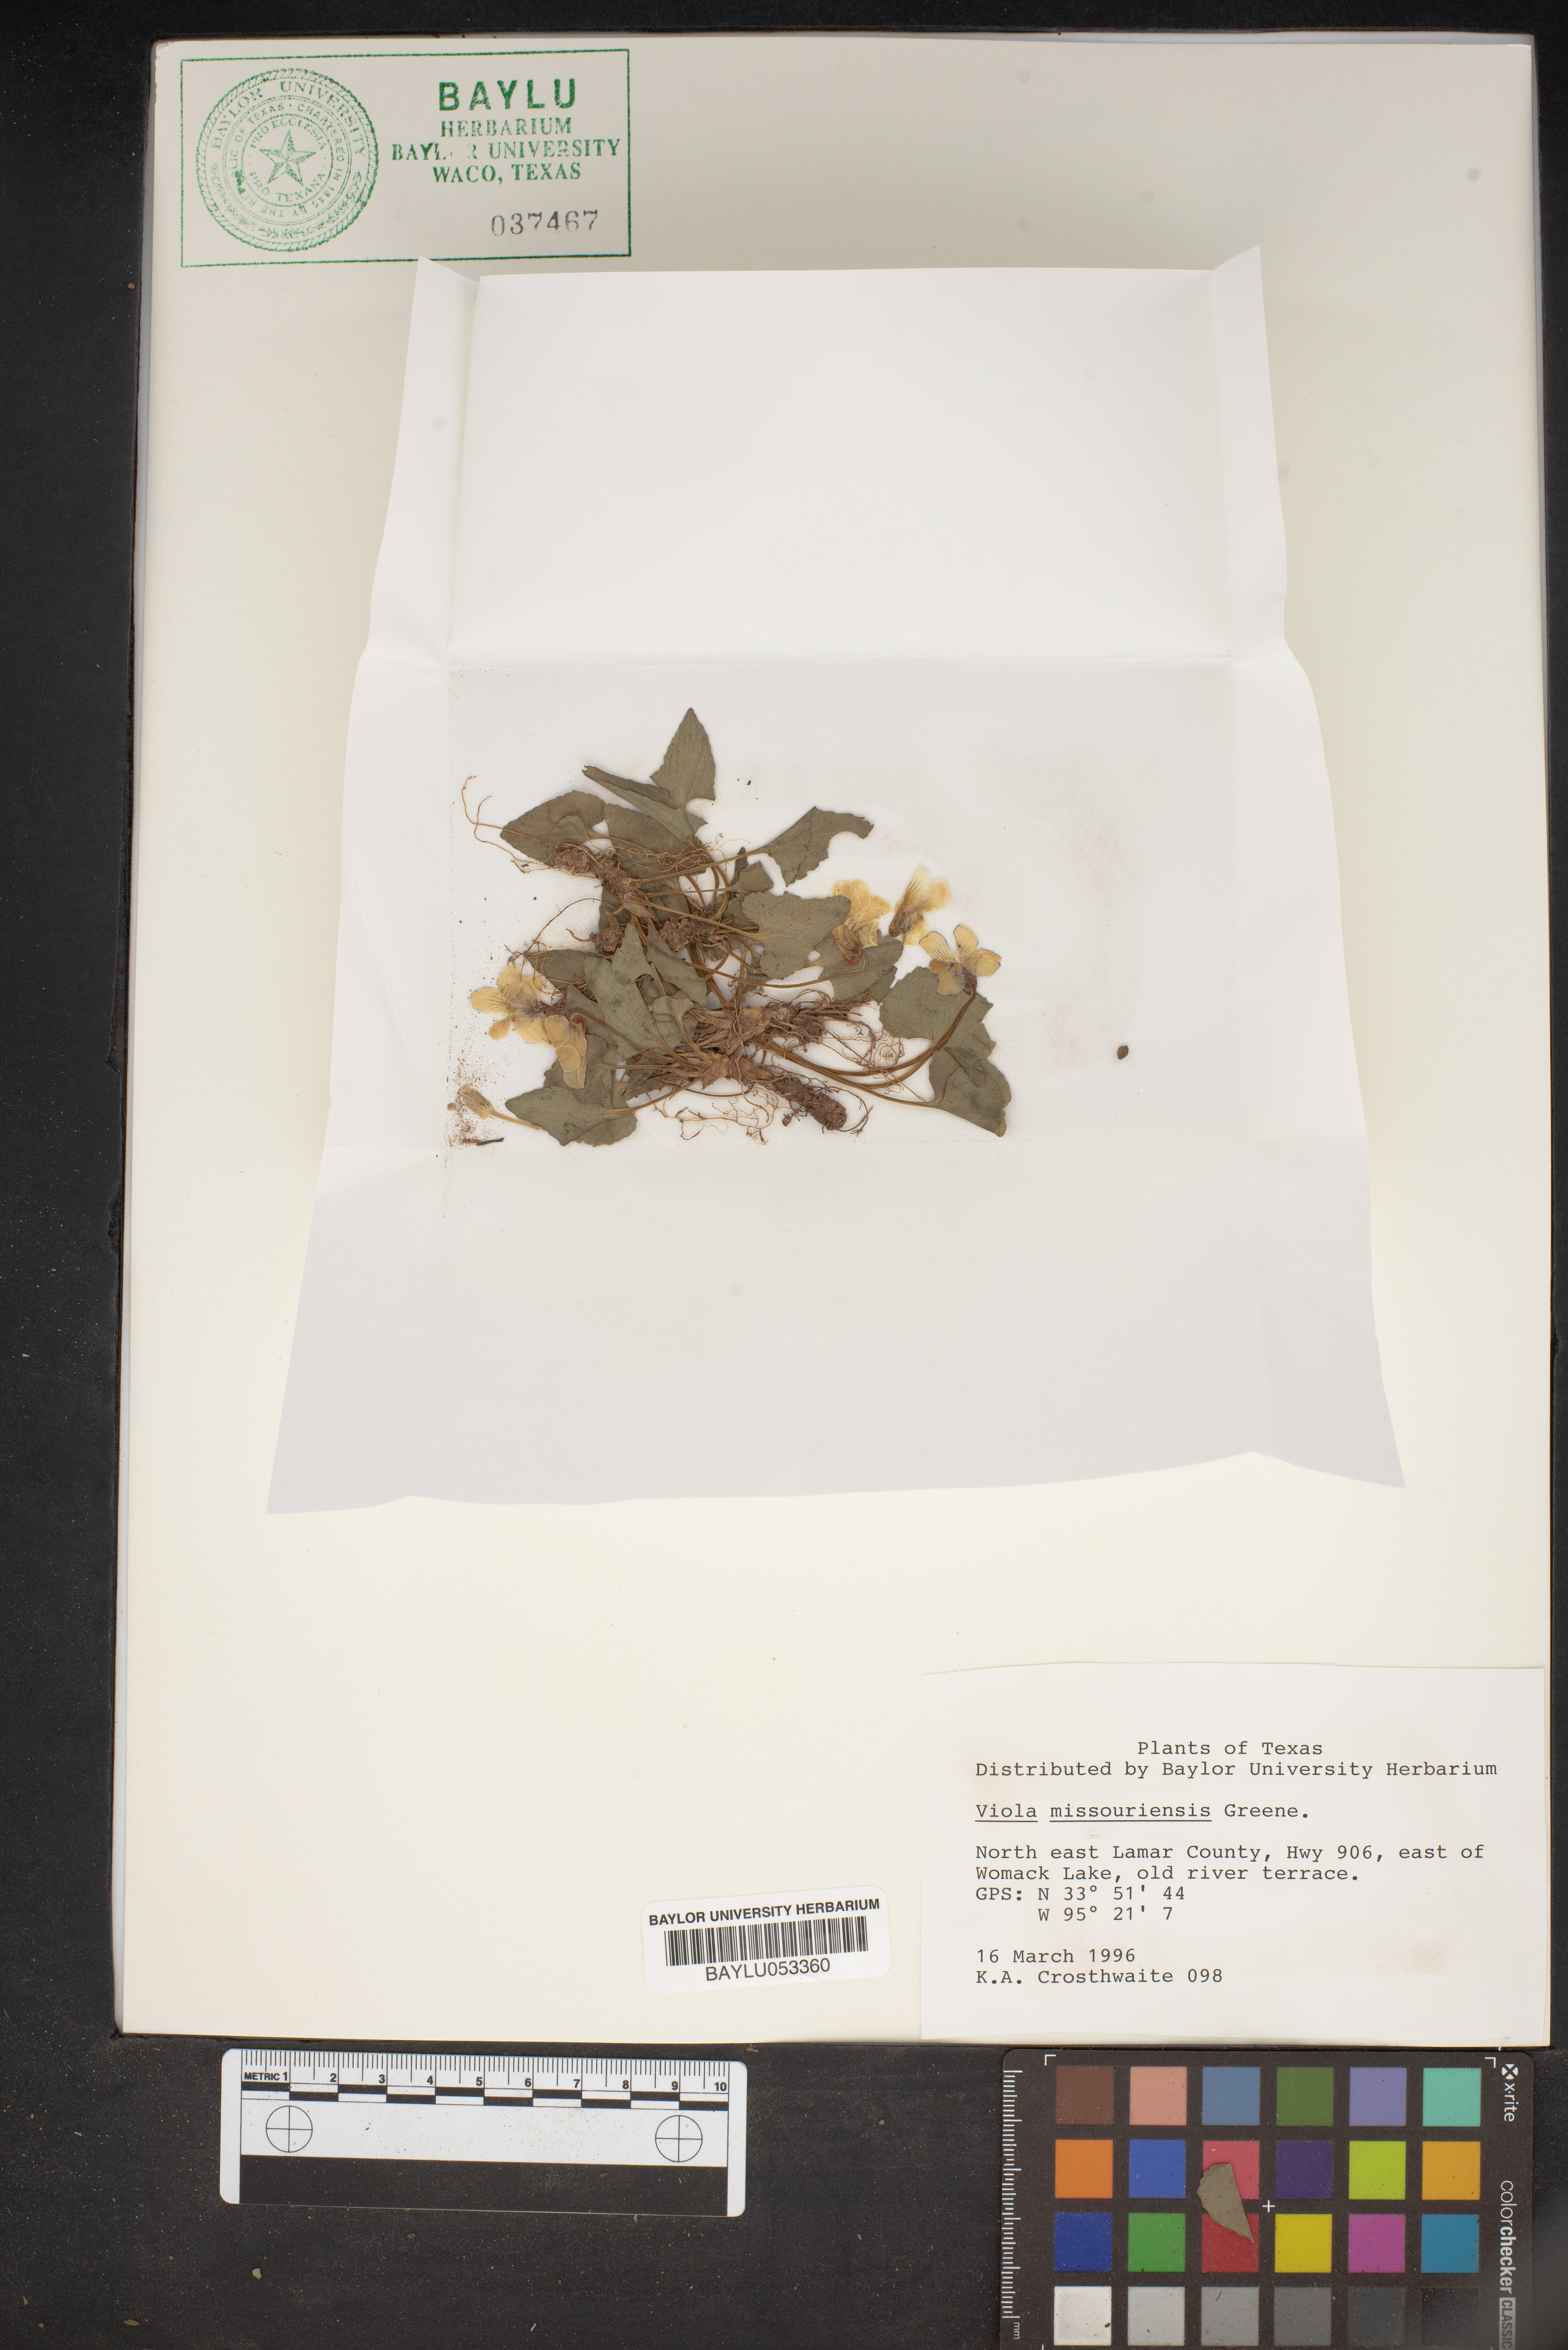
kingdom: Plantae
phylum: Tracheophyta
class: Magnoliopsida
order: Malpighiales
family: Violaceae
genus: Viola
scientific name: Viola missouriensis
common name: Missouri violet
